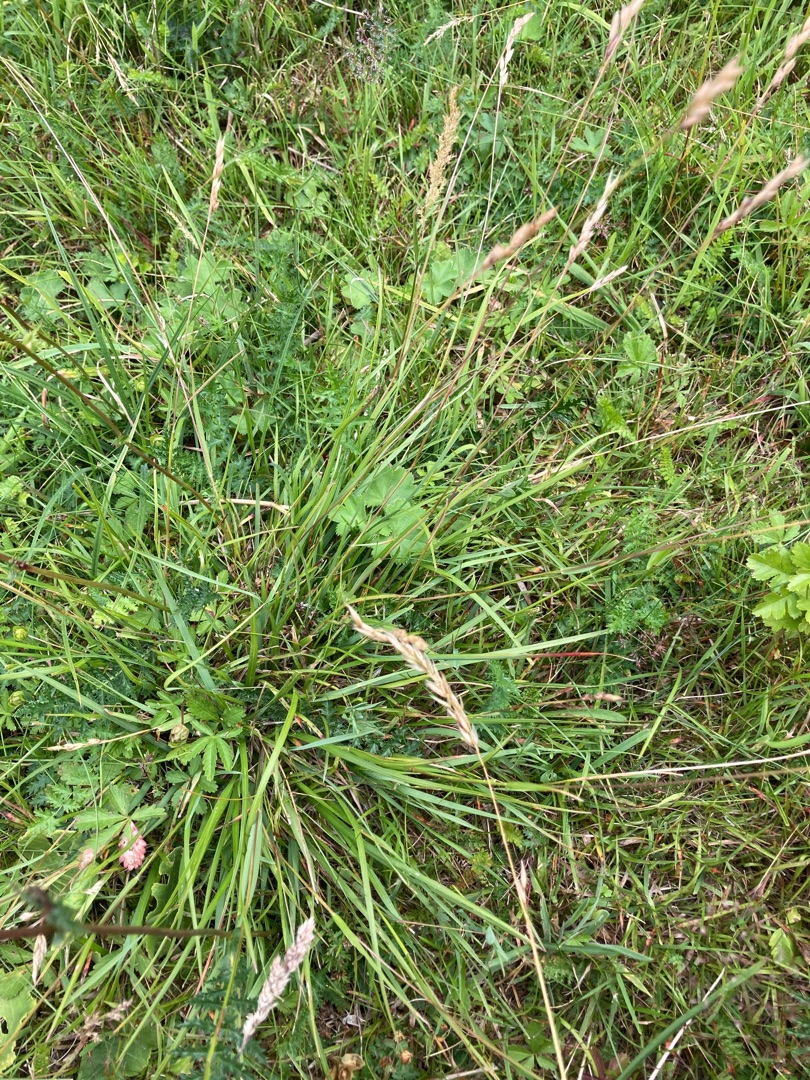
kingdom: Plantae
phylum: Tracheophyta
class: Liliopsida
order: Poales
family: Poaceae
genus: Danthonia
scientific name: Danthonia decumbens
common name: Tandbælg
